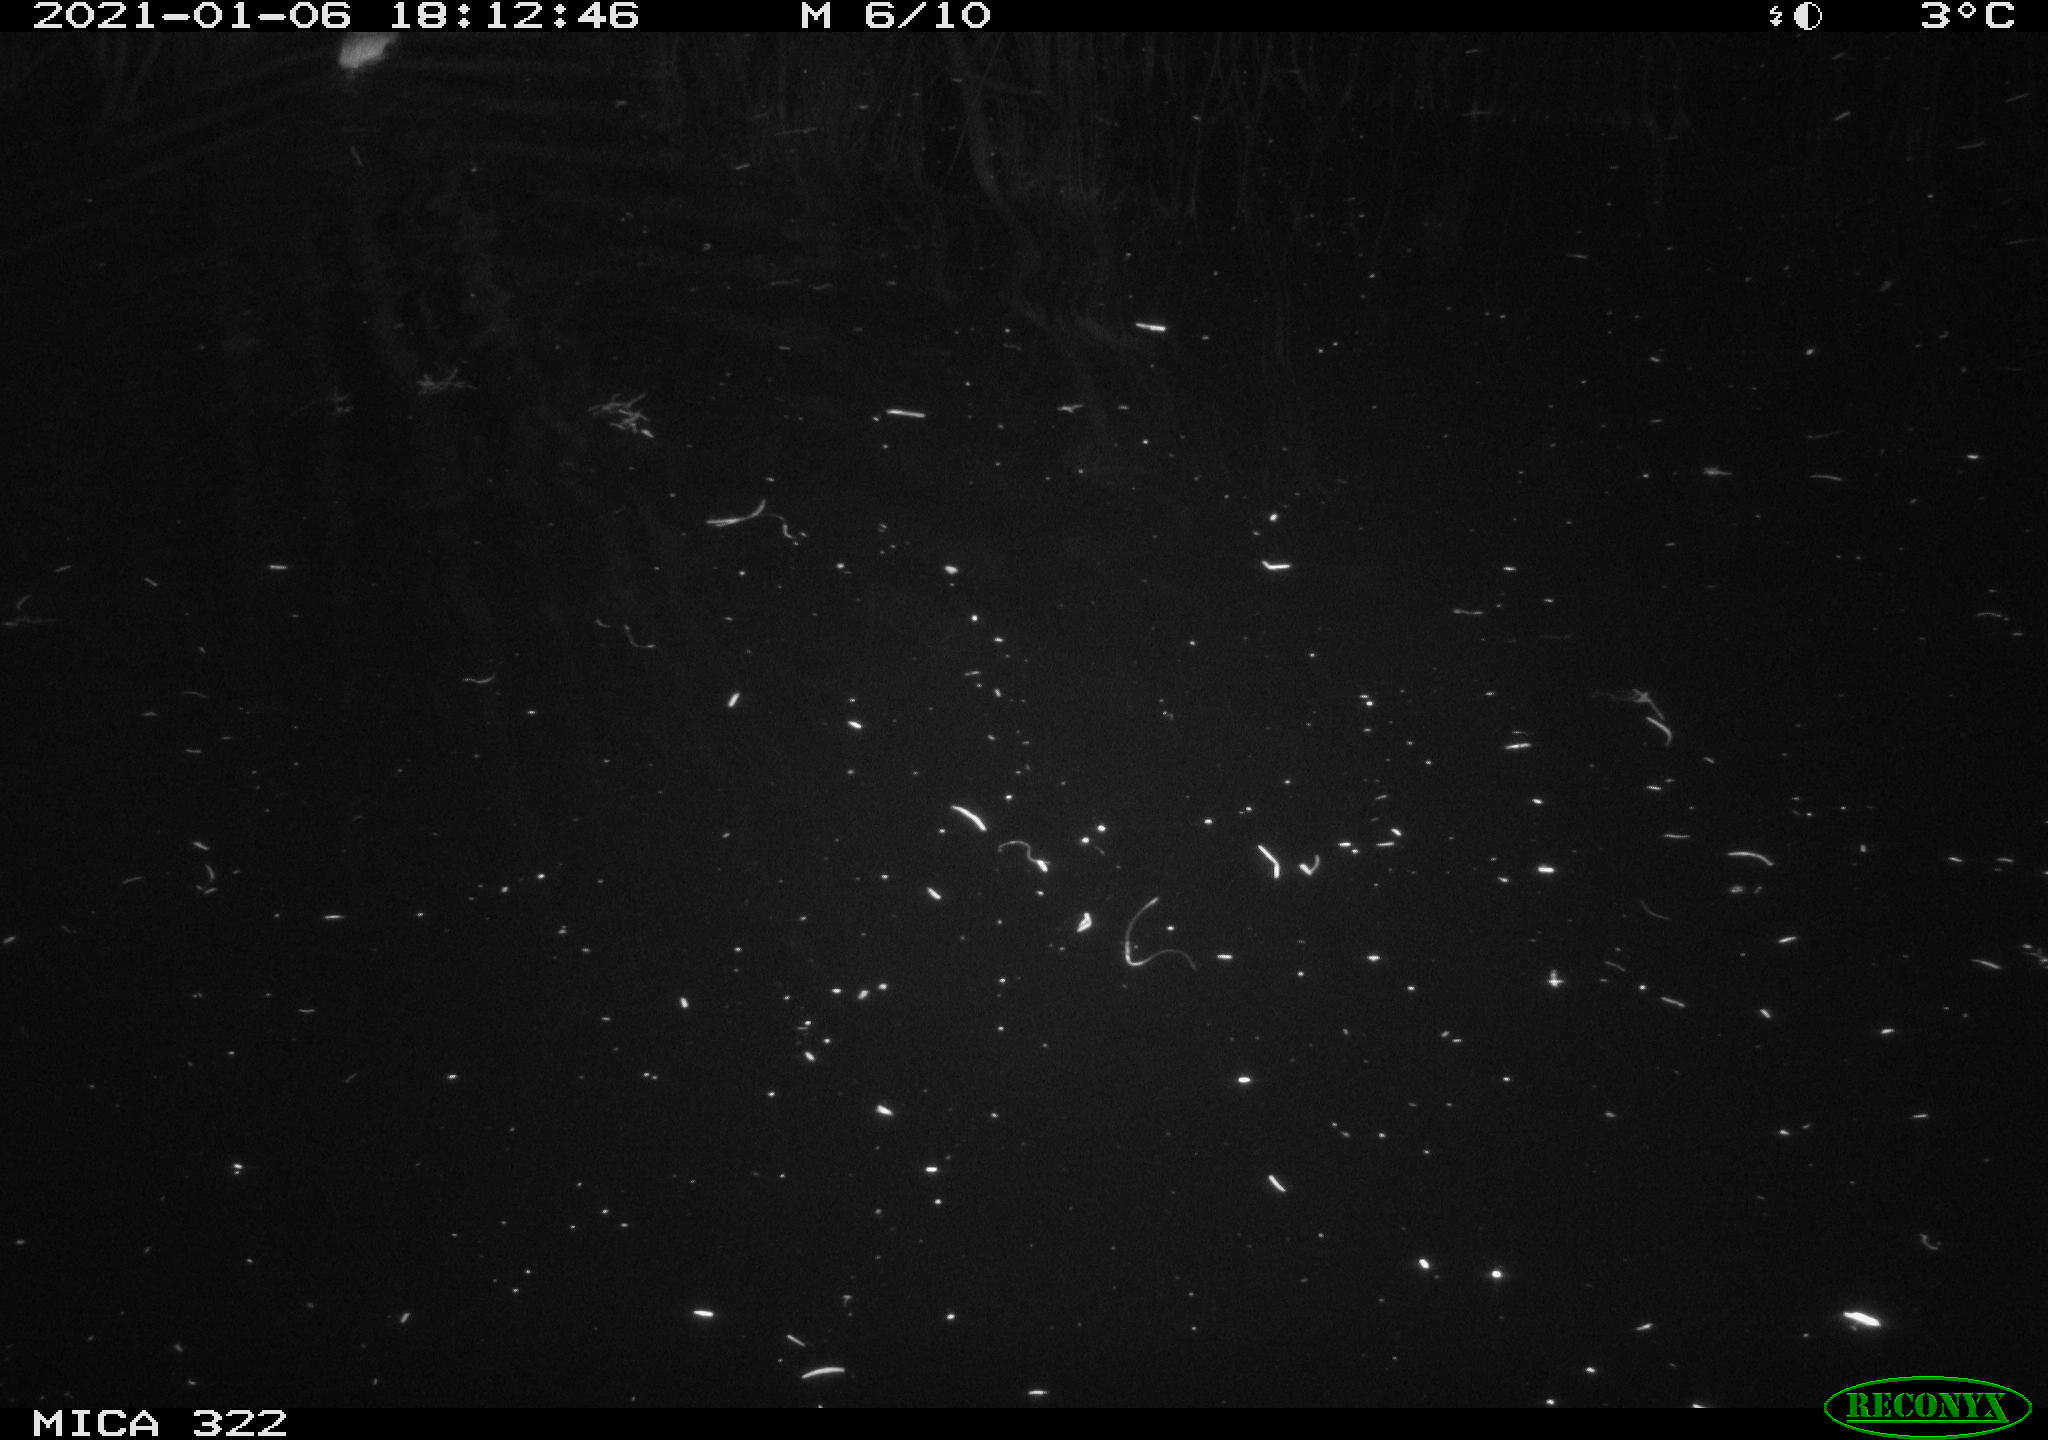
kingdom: Animalia
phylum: Chordata
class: Mammalia
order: Rodentia
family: Muridae
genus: Rattus
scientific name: Rattus norvegicus
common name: Brown rat
